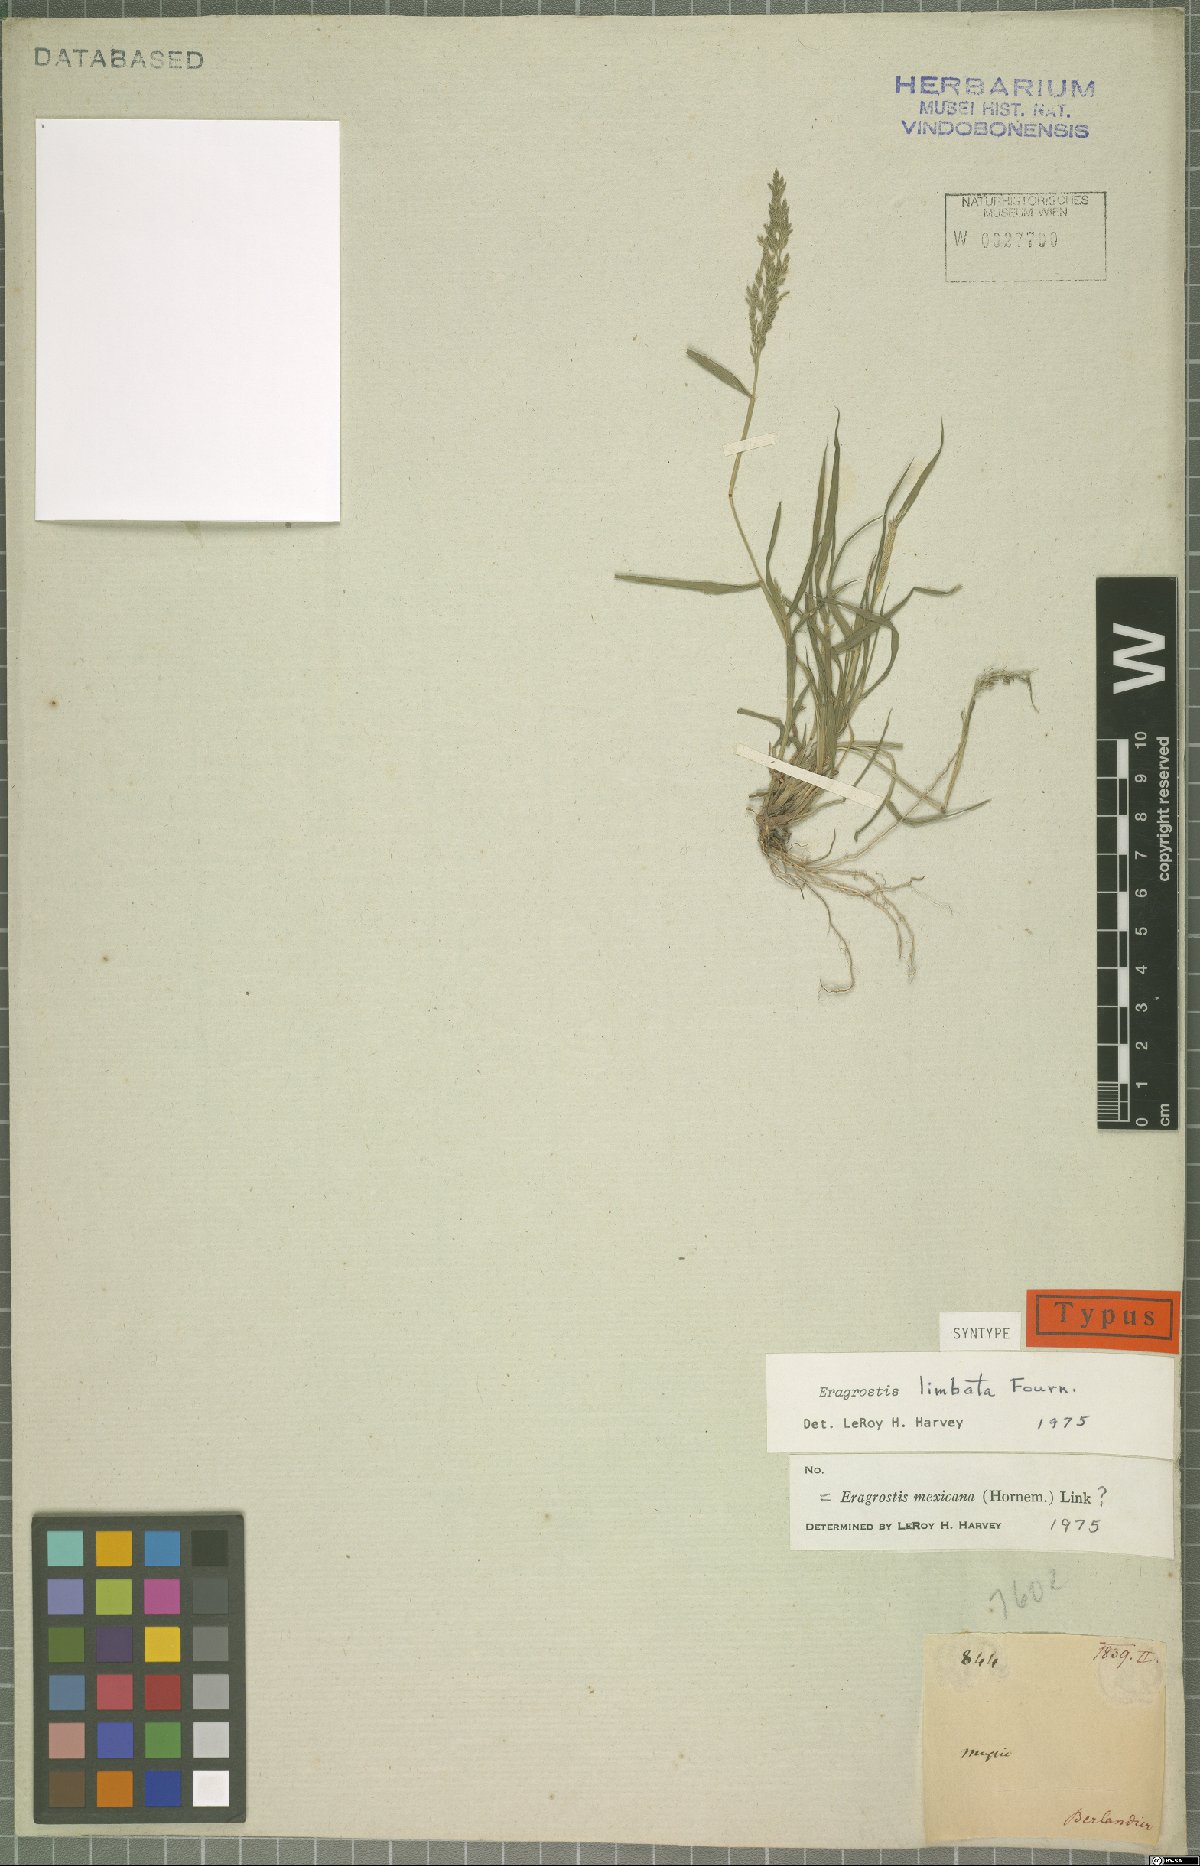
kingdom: Plantae
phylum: Tracheophyta
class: Liliopsida
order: Poales
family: Poaceae
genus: Eragrostis
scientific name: Eragrostis mexicana
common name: Mexican love grass
